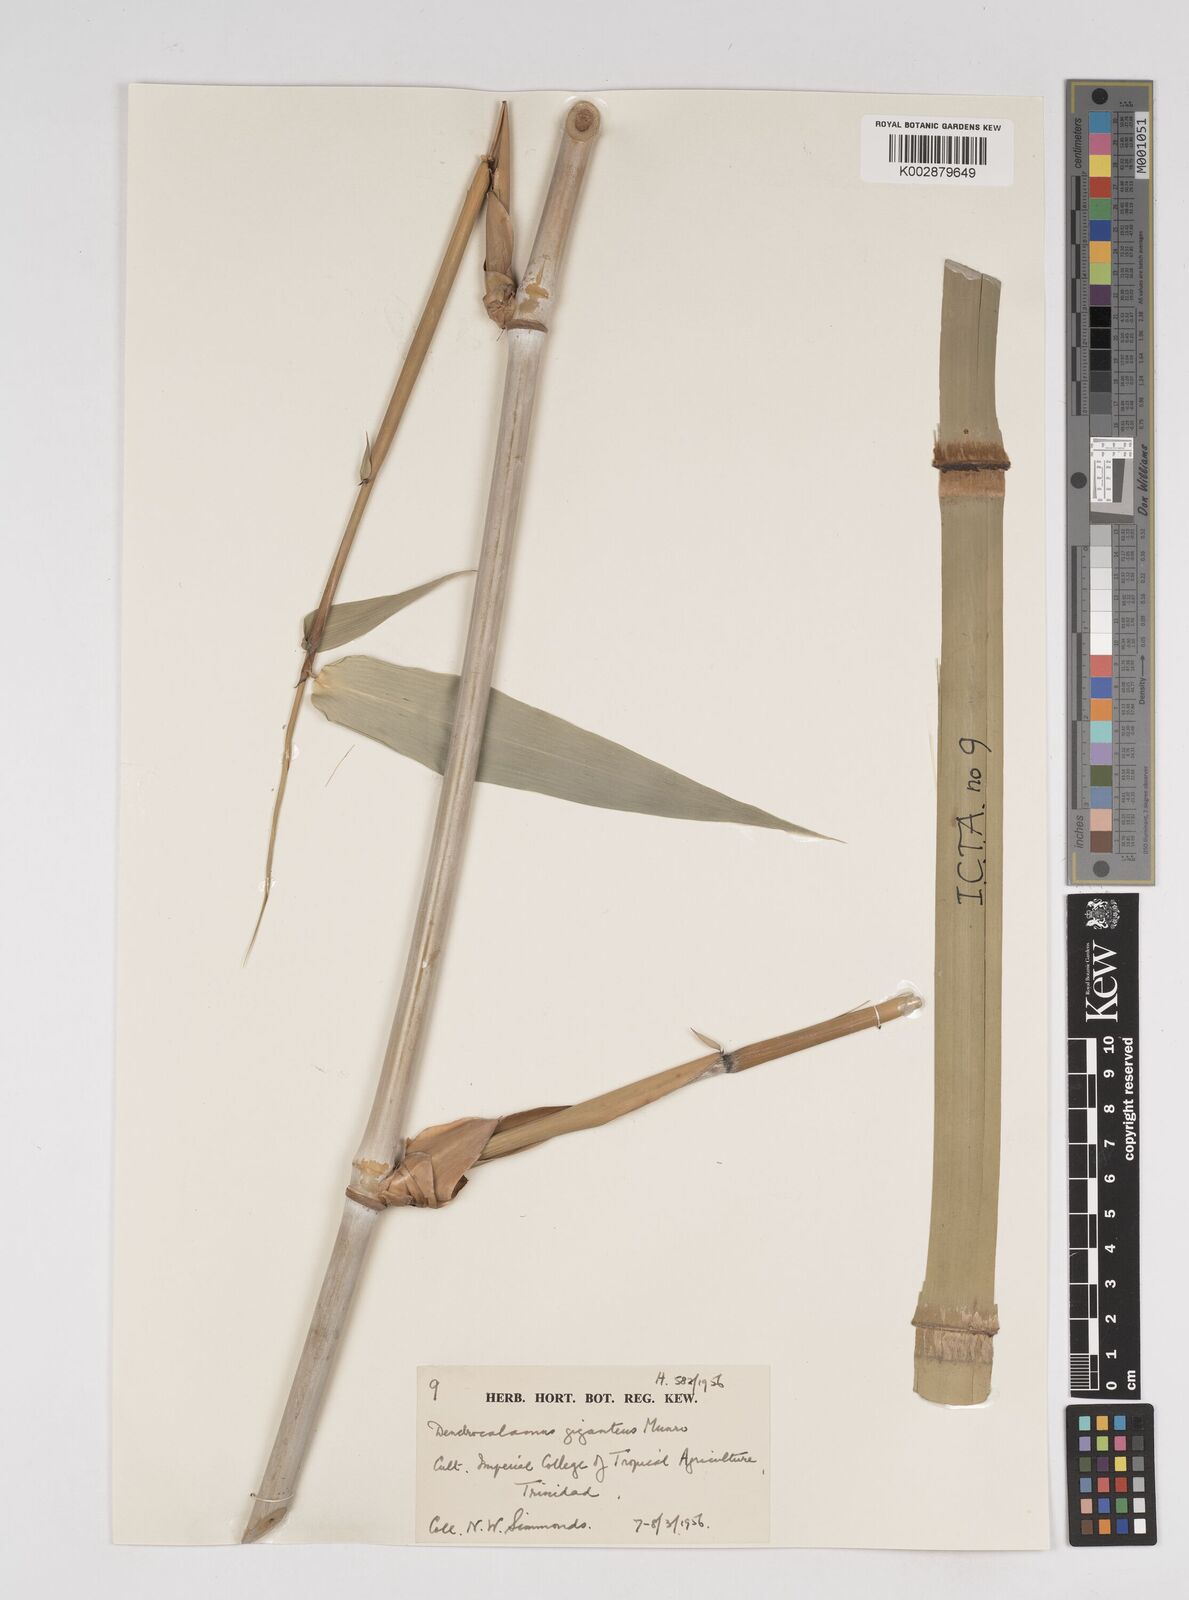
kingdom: Plantae
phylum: Tracheophyta
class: Liliopsida
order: Poales
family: Poaceae
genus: Dendrocalamus
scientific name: Dendrocalamus giganteus
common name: Giant bamboo
